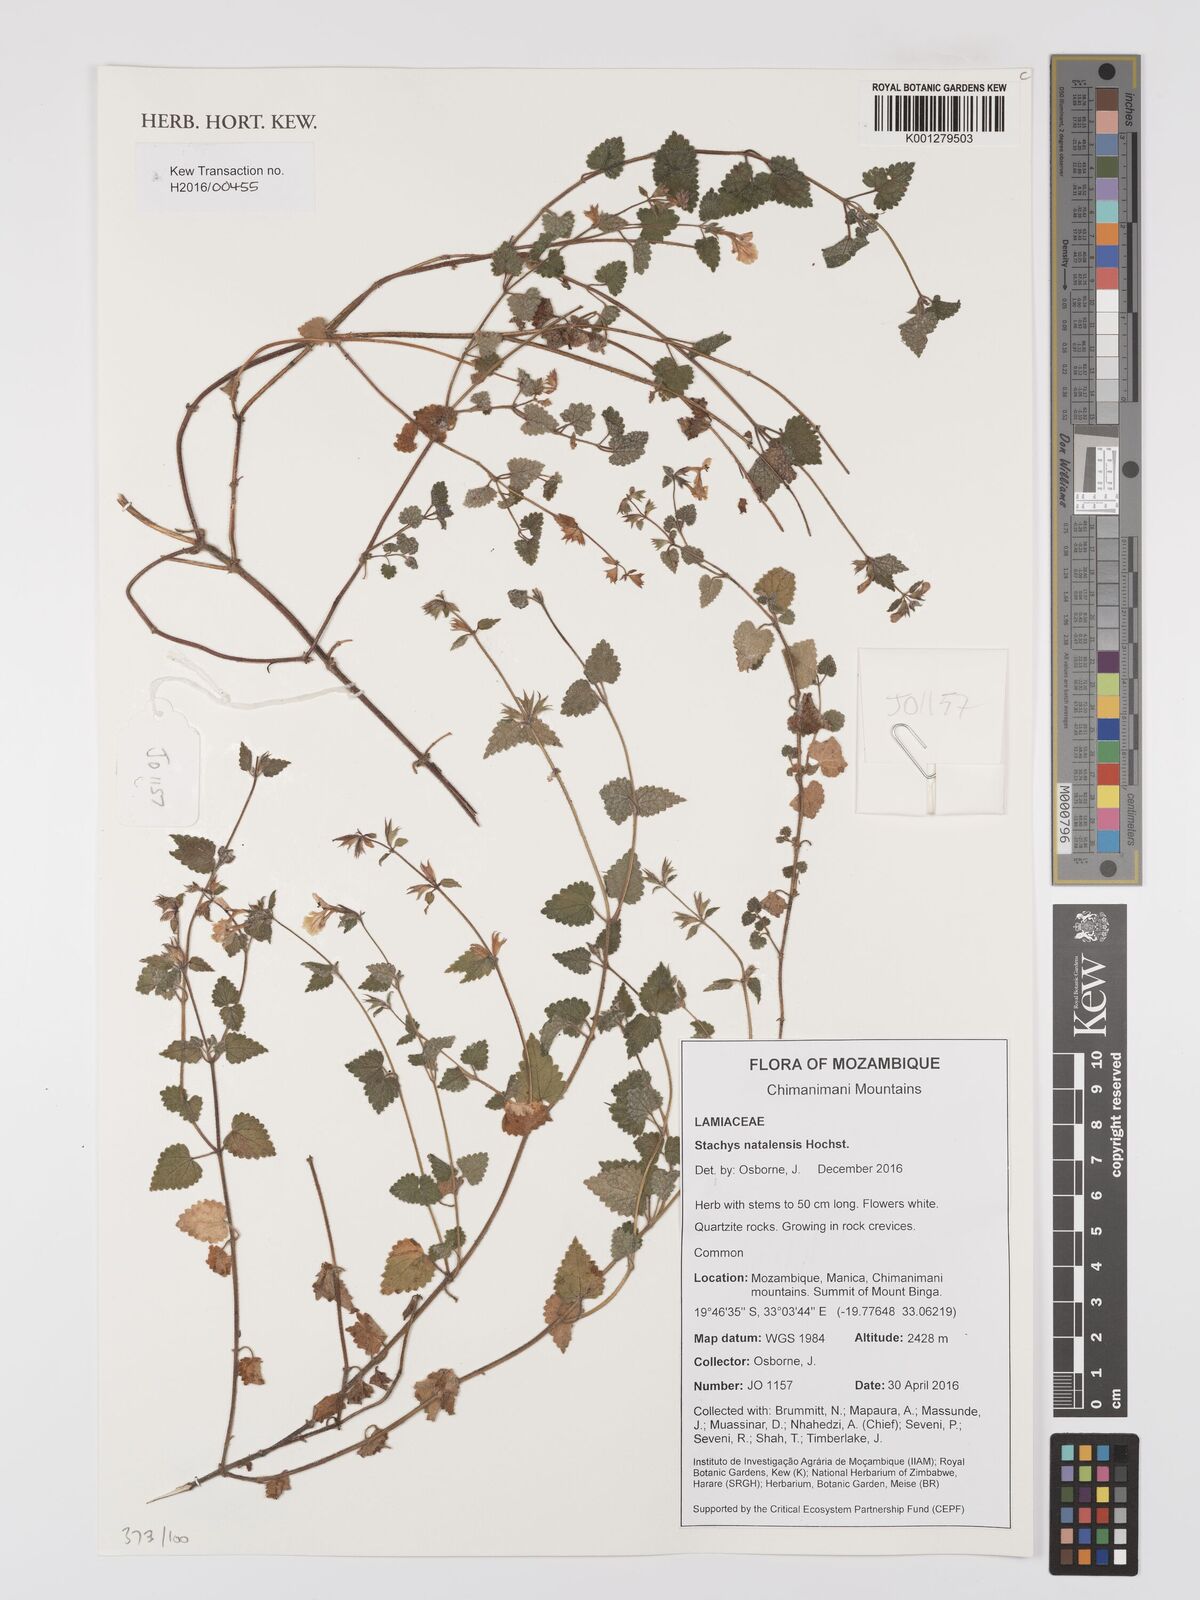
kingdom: Plantae
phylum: Tracheophyta
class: Magnoliopsida
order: Lamiales
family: Lamiaceae
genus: Stachys
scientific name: Stachys natalensis
